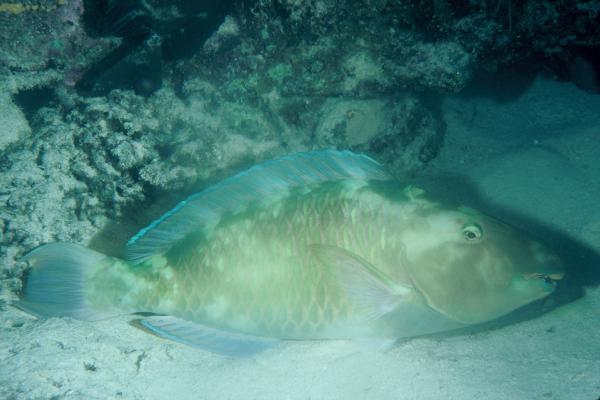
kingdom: Animalia
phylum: Chordata
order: Perciformes
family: Scaridae
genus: Hipposcarus
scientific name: Hipposcarus longiceps
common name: Pacific longnose parrotfish
